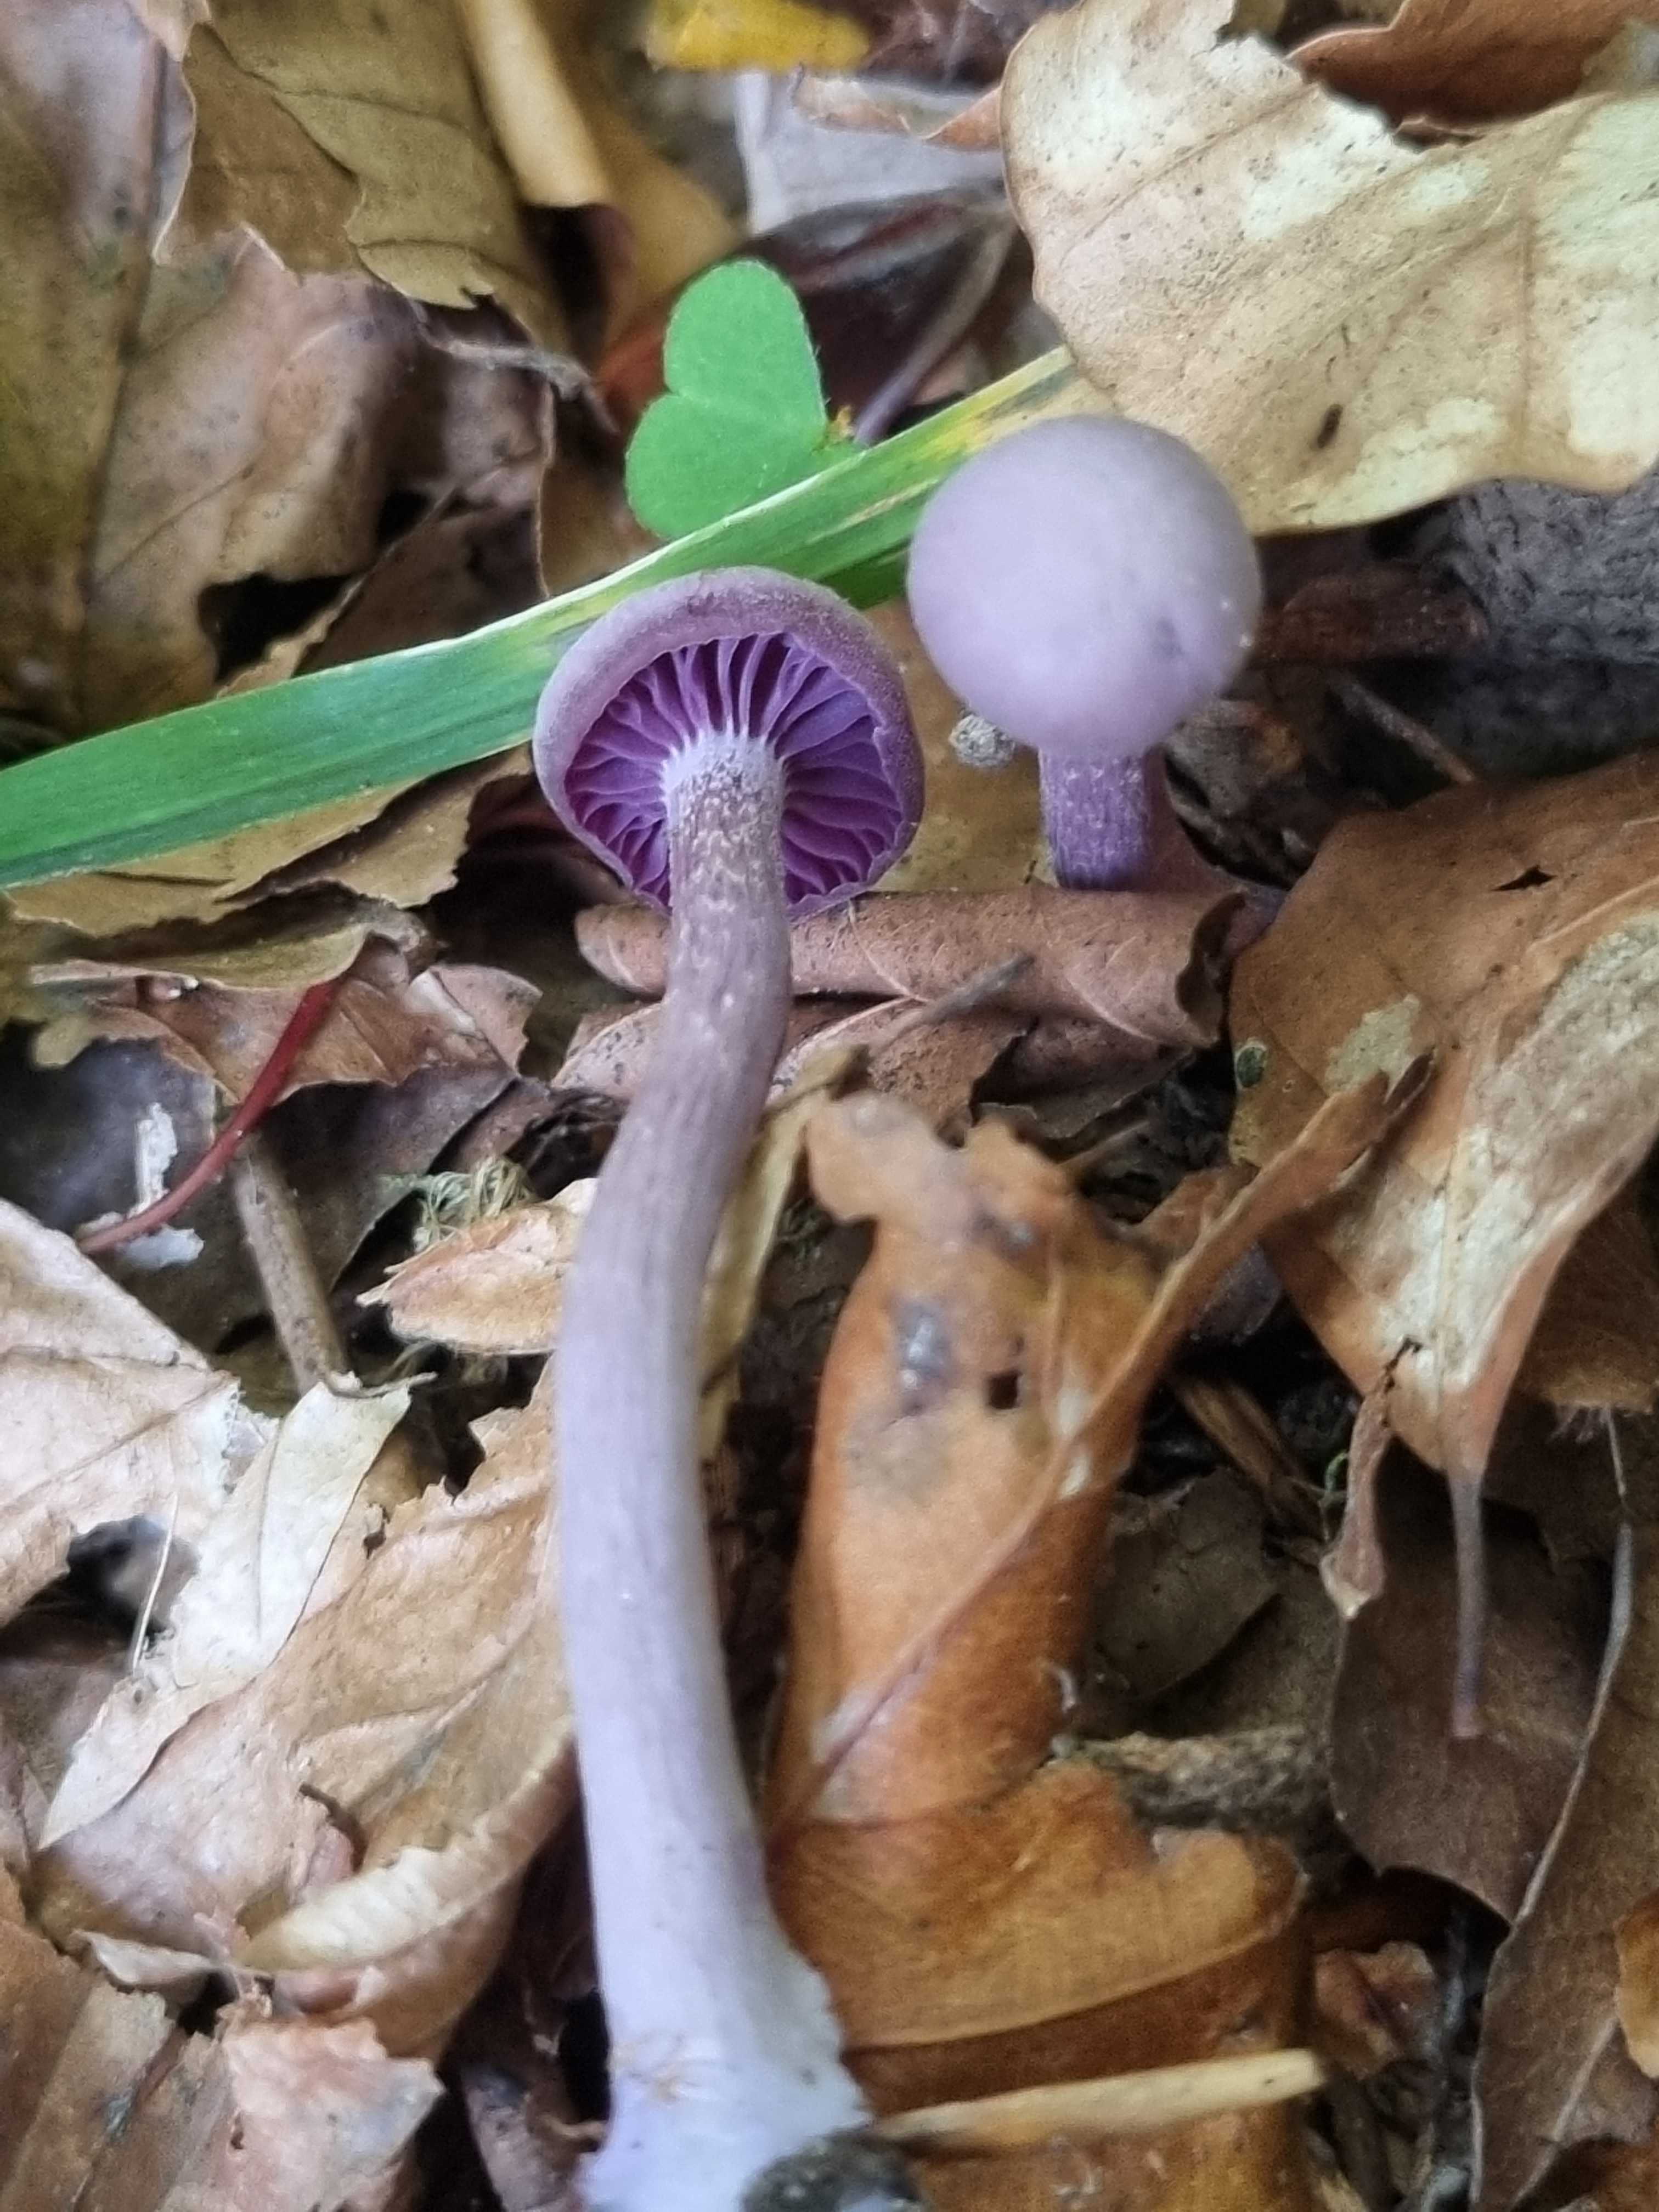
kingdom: Fungi
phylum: Basidiomycota
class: Agaricomycetes
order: Agaricales
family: Hydnangiaceae
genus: Laccaria
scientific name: Laccaria amethystina
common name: violet ametysthat
